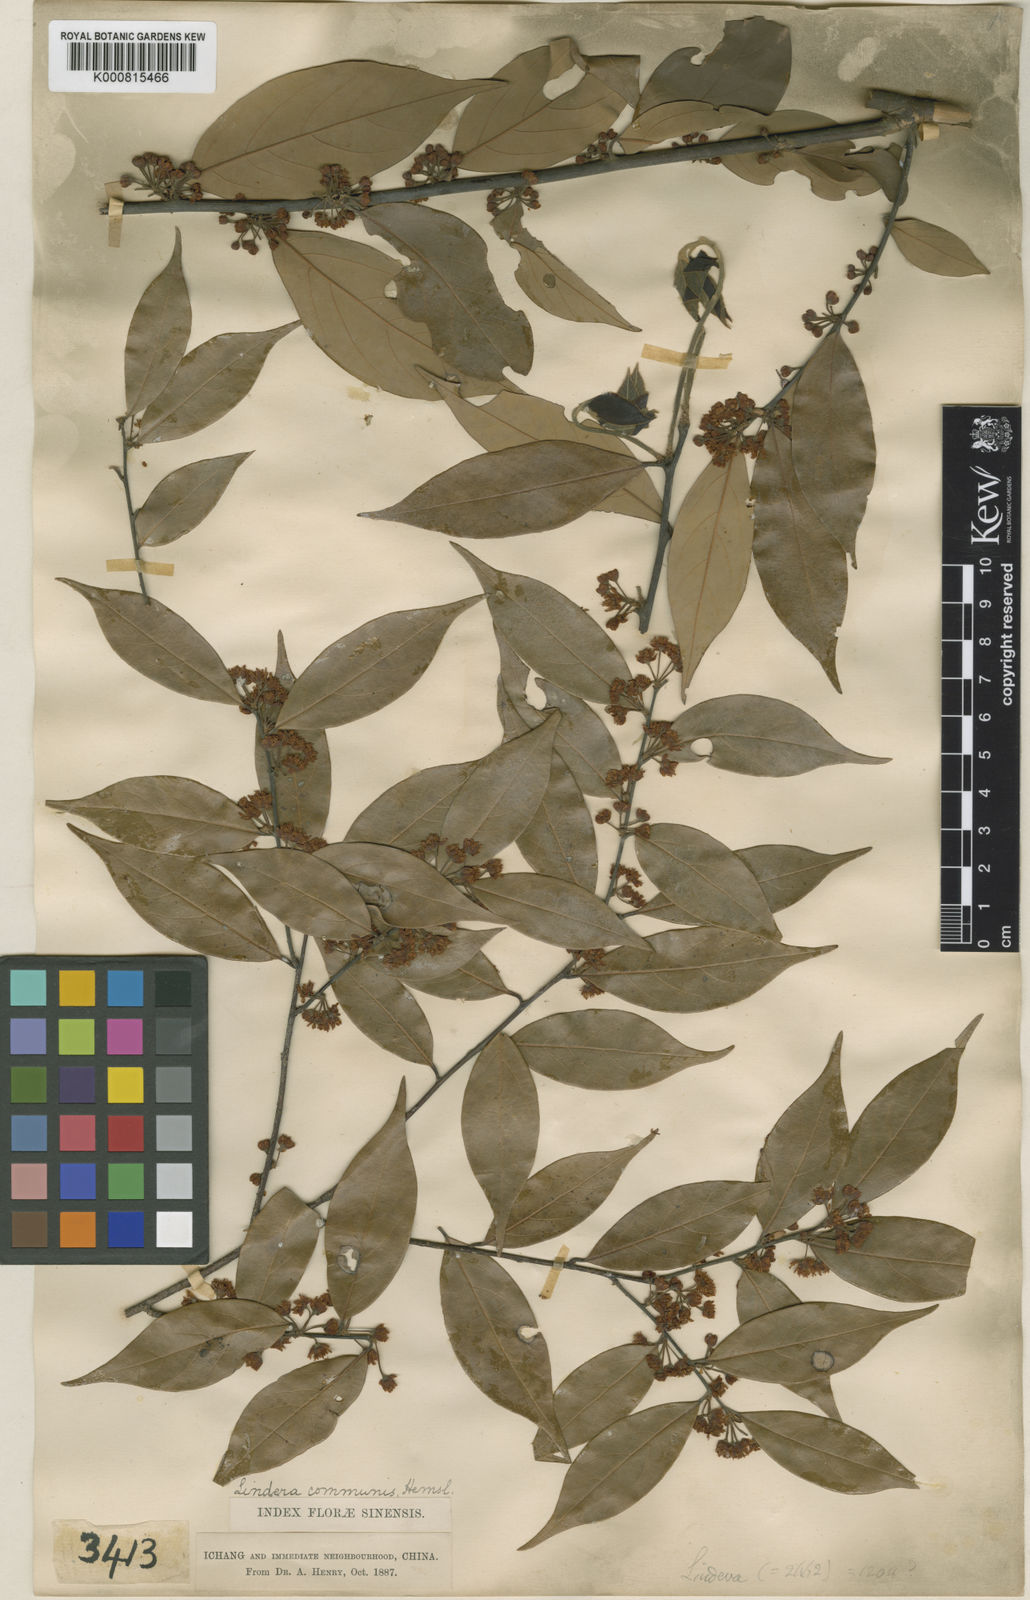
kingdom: Plantae
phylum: Tracheophyta
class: Magnoliopsida
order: Laurales
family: Lauraceae
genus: Lindera
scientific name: Lindera communis
